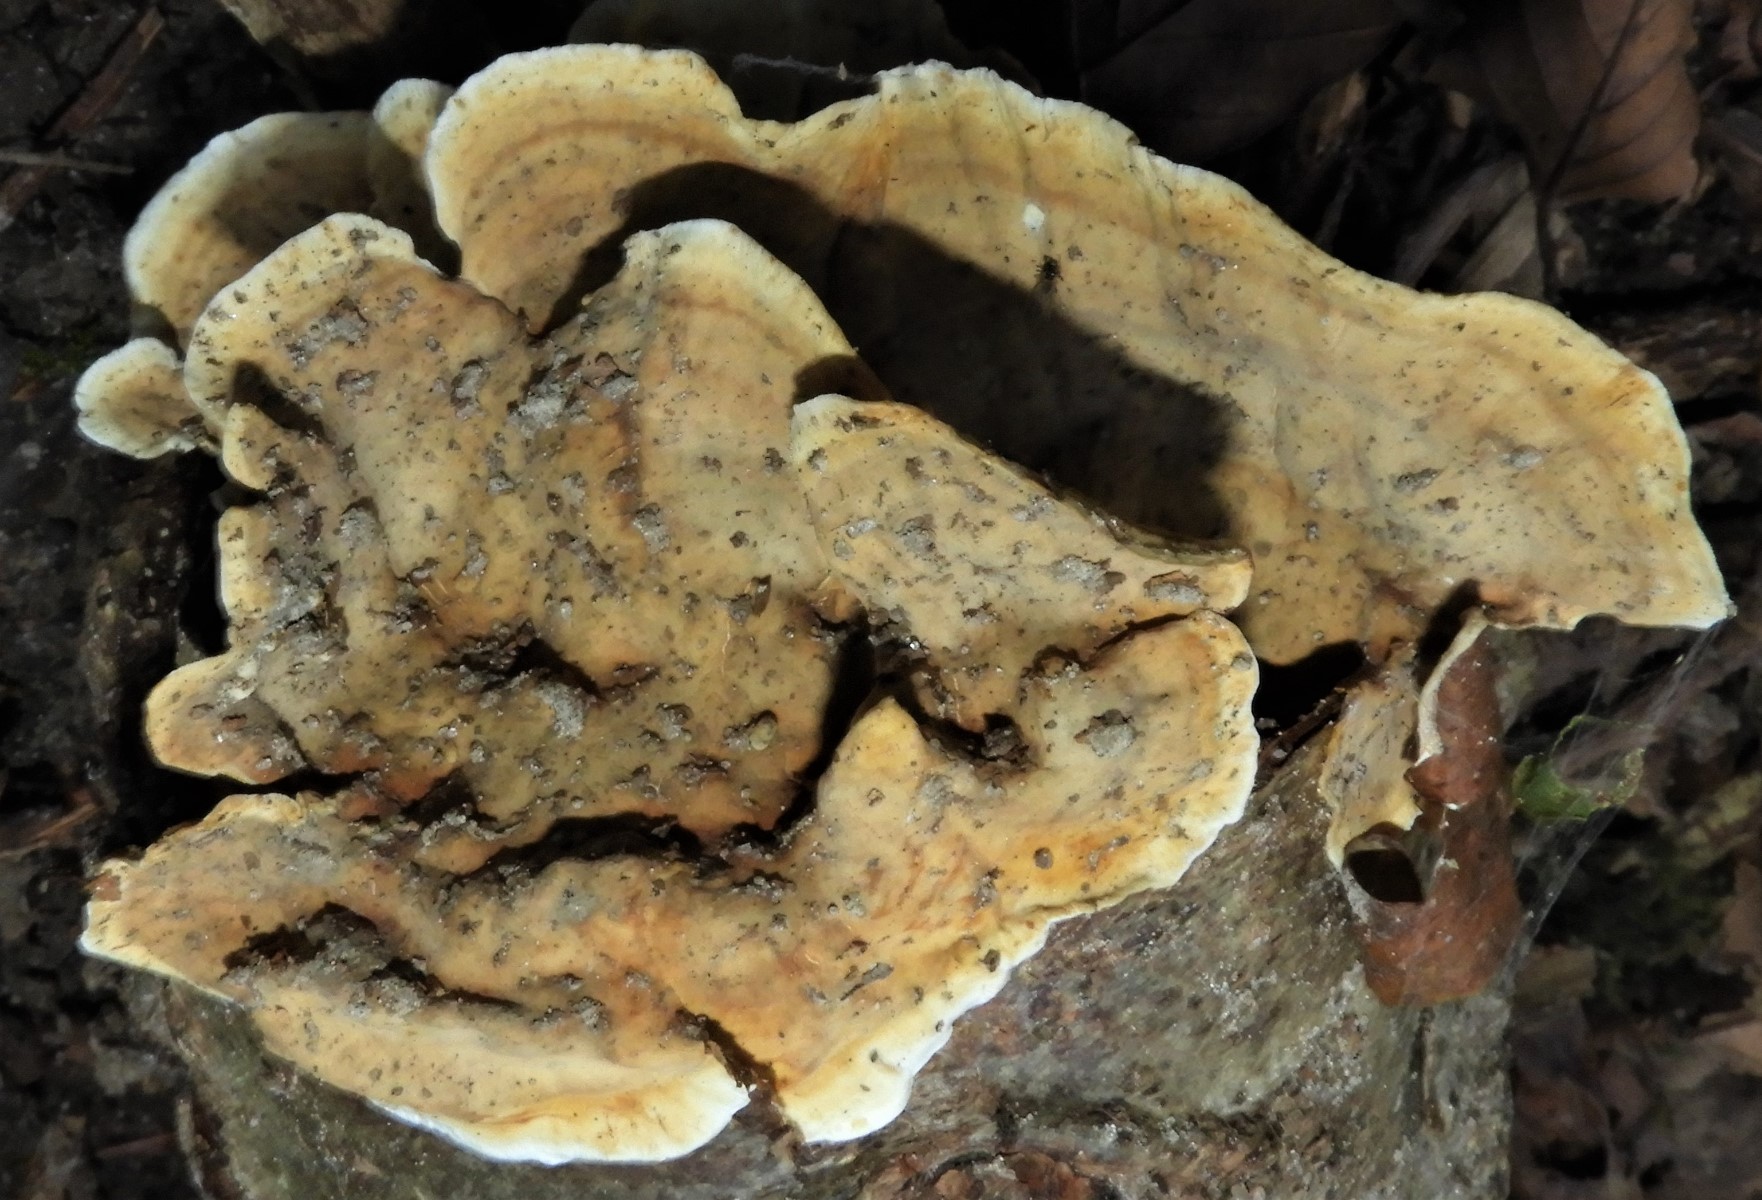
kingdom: Fungi
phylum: Basidiomycota
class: Agaricomycetes
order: Russulales
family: Stereaceae
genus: Stereum
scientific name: Stereum subtomentosum
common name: smuk lædersvamp
